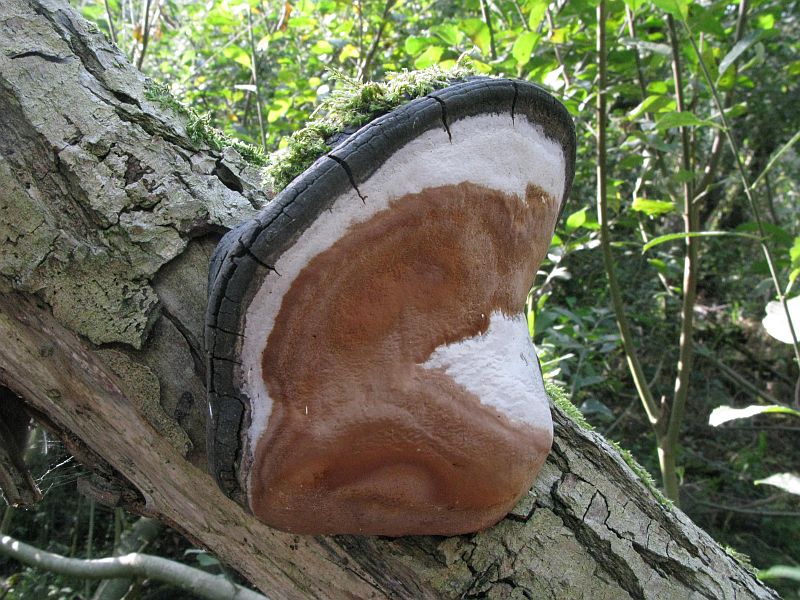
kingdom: Fungi
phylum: Basidiomycota
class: Agaricomycetes
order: Hymenochaetales
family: Hymenochaetaceae
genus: Phellinus
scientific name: Phellinus igniarius
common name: almindelig ildporesvamp
